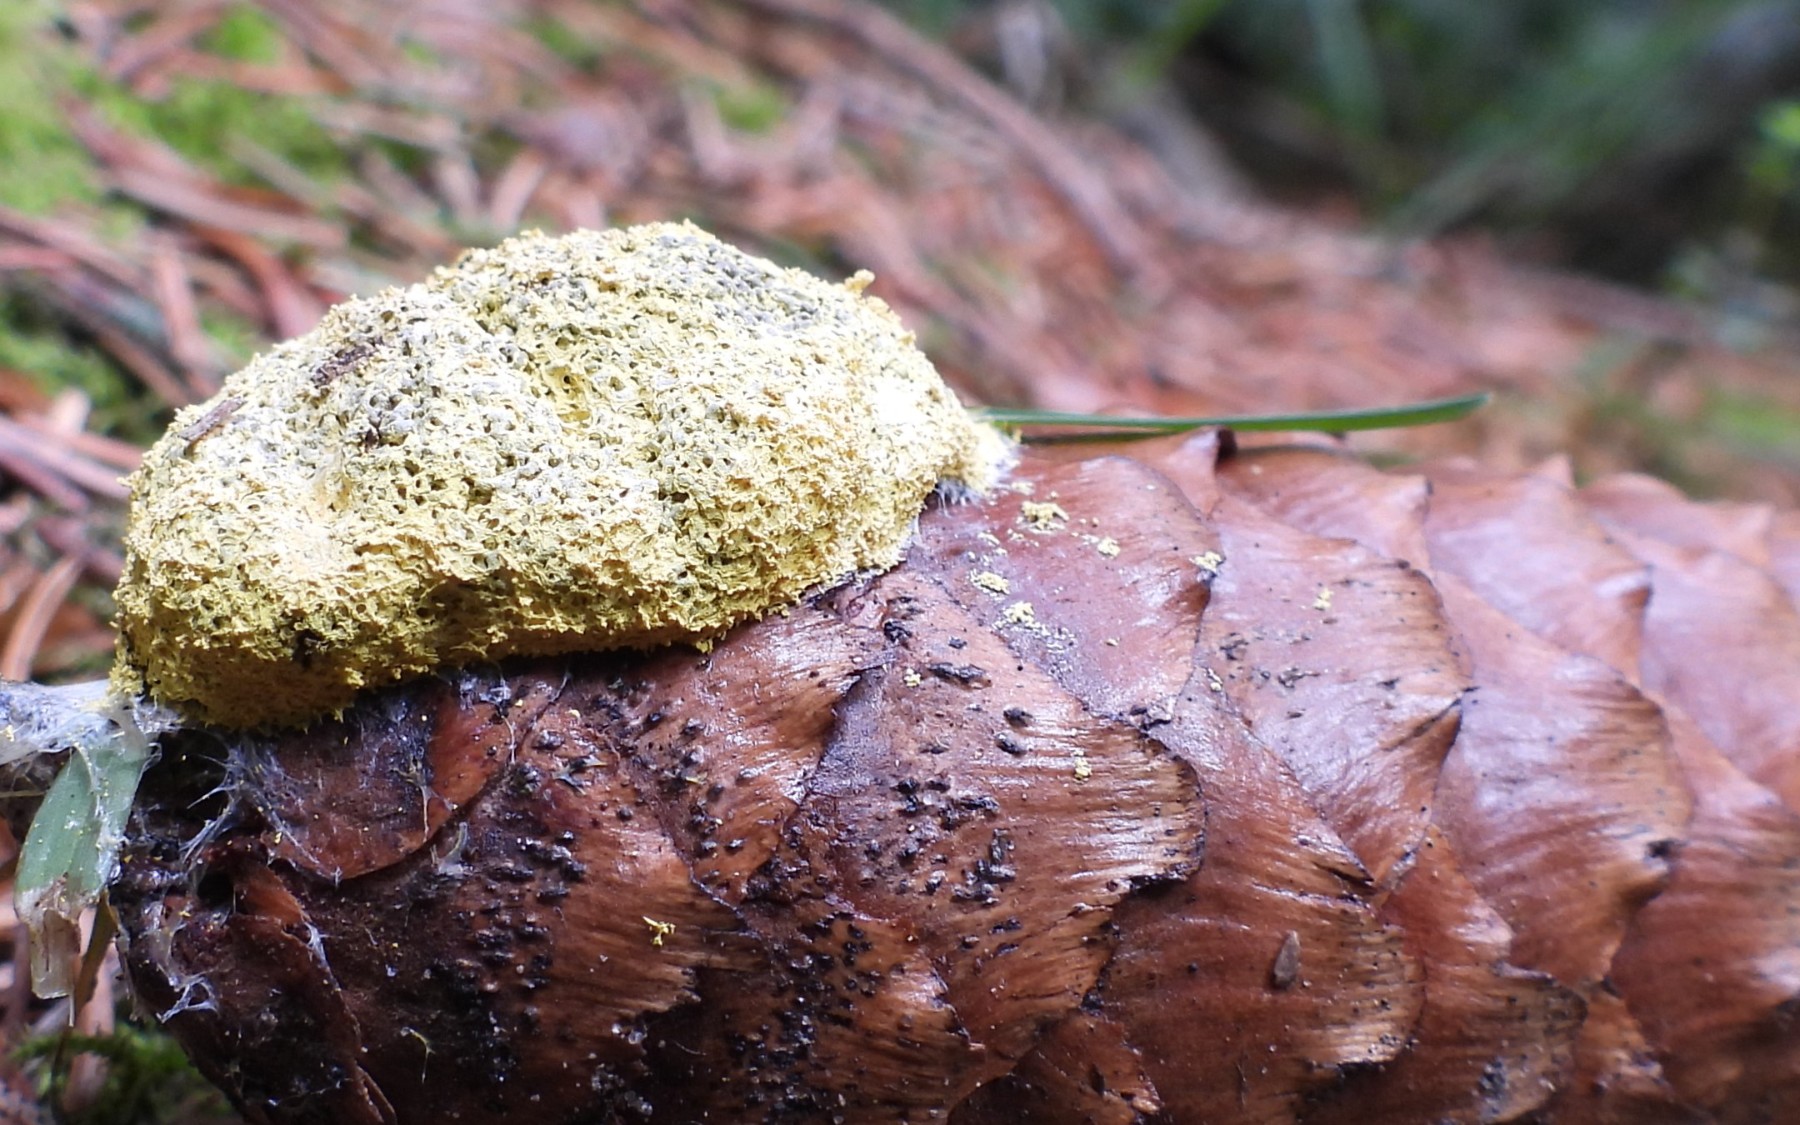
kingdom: Protozoa
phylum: Mycetozoa
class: Myxomycetes
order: Physarales
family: Physaraceae
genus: Fuligo
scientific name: Fuligo septica
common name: gul troldsmør
